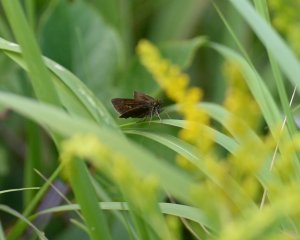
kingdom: Animalia
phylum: Arthropoda
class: Insecta
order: Lepidoptera
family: Hesperiidae
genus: Euphyes
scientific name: Euphyes vestris
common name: Dun Skipper
